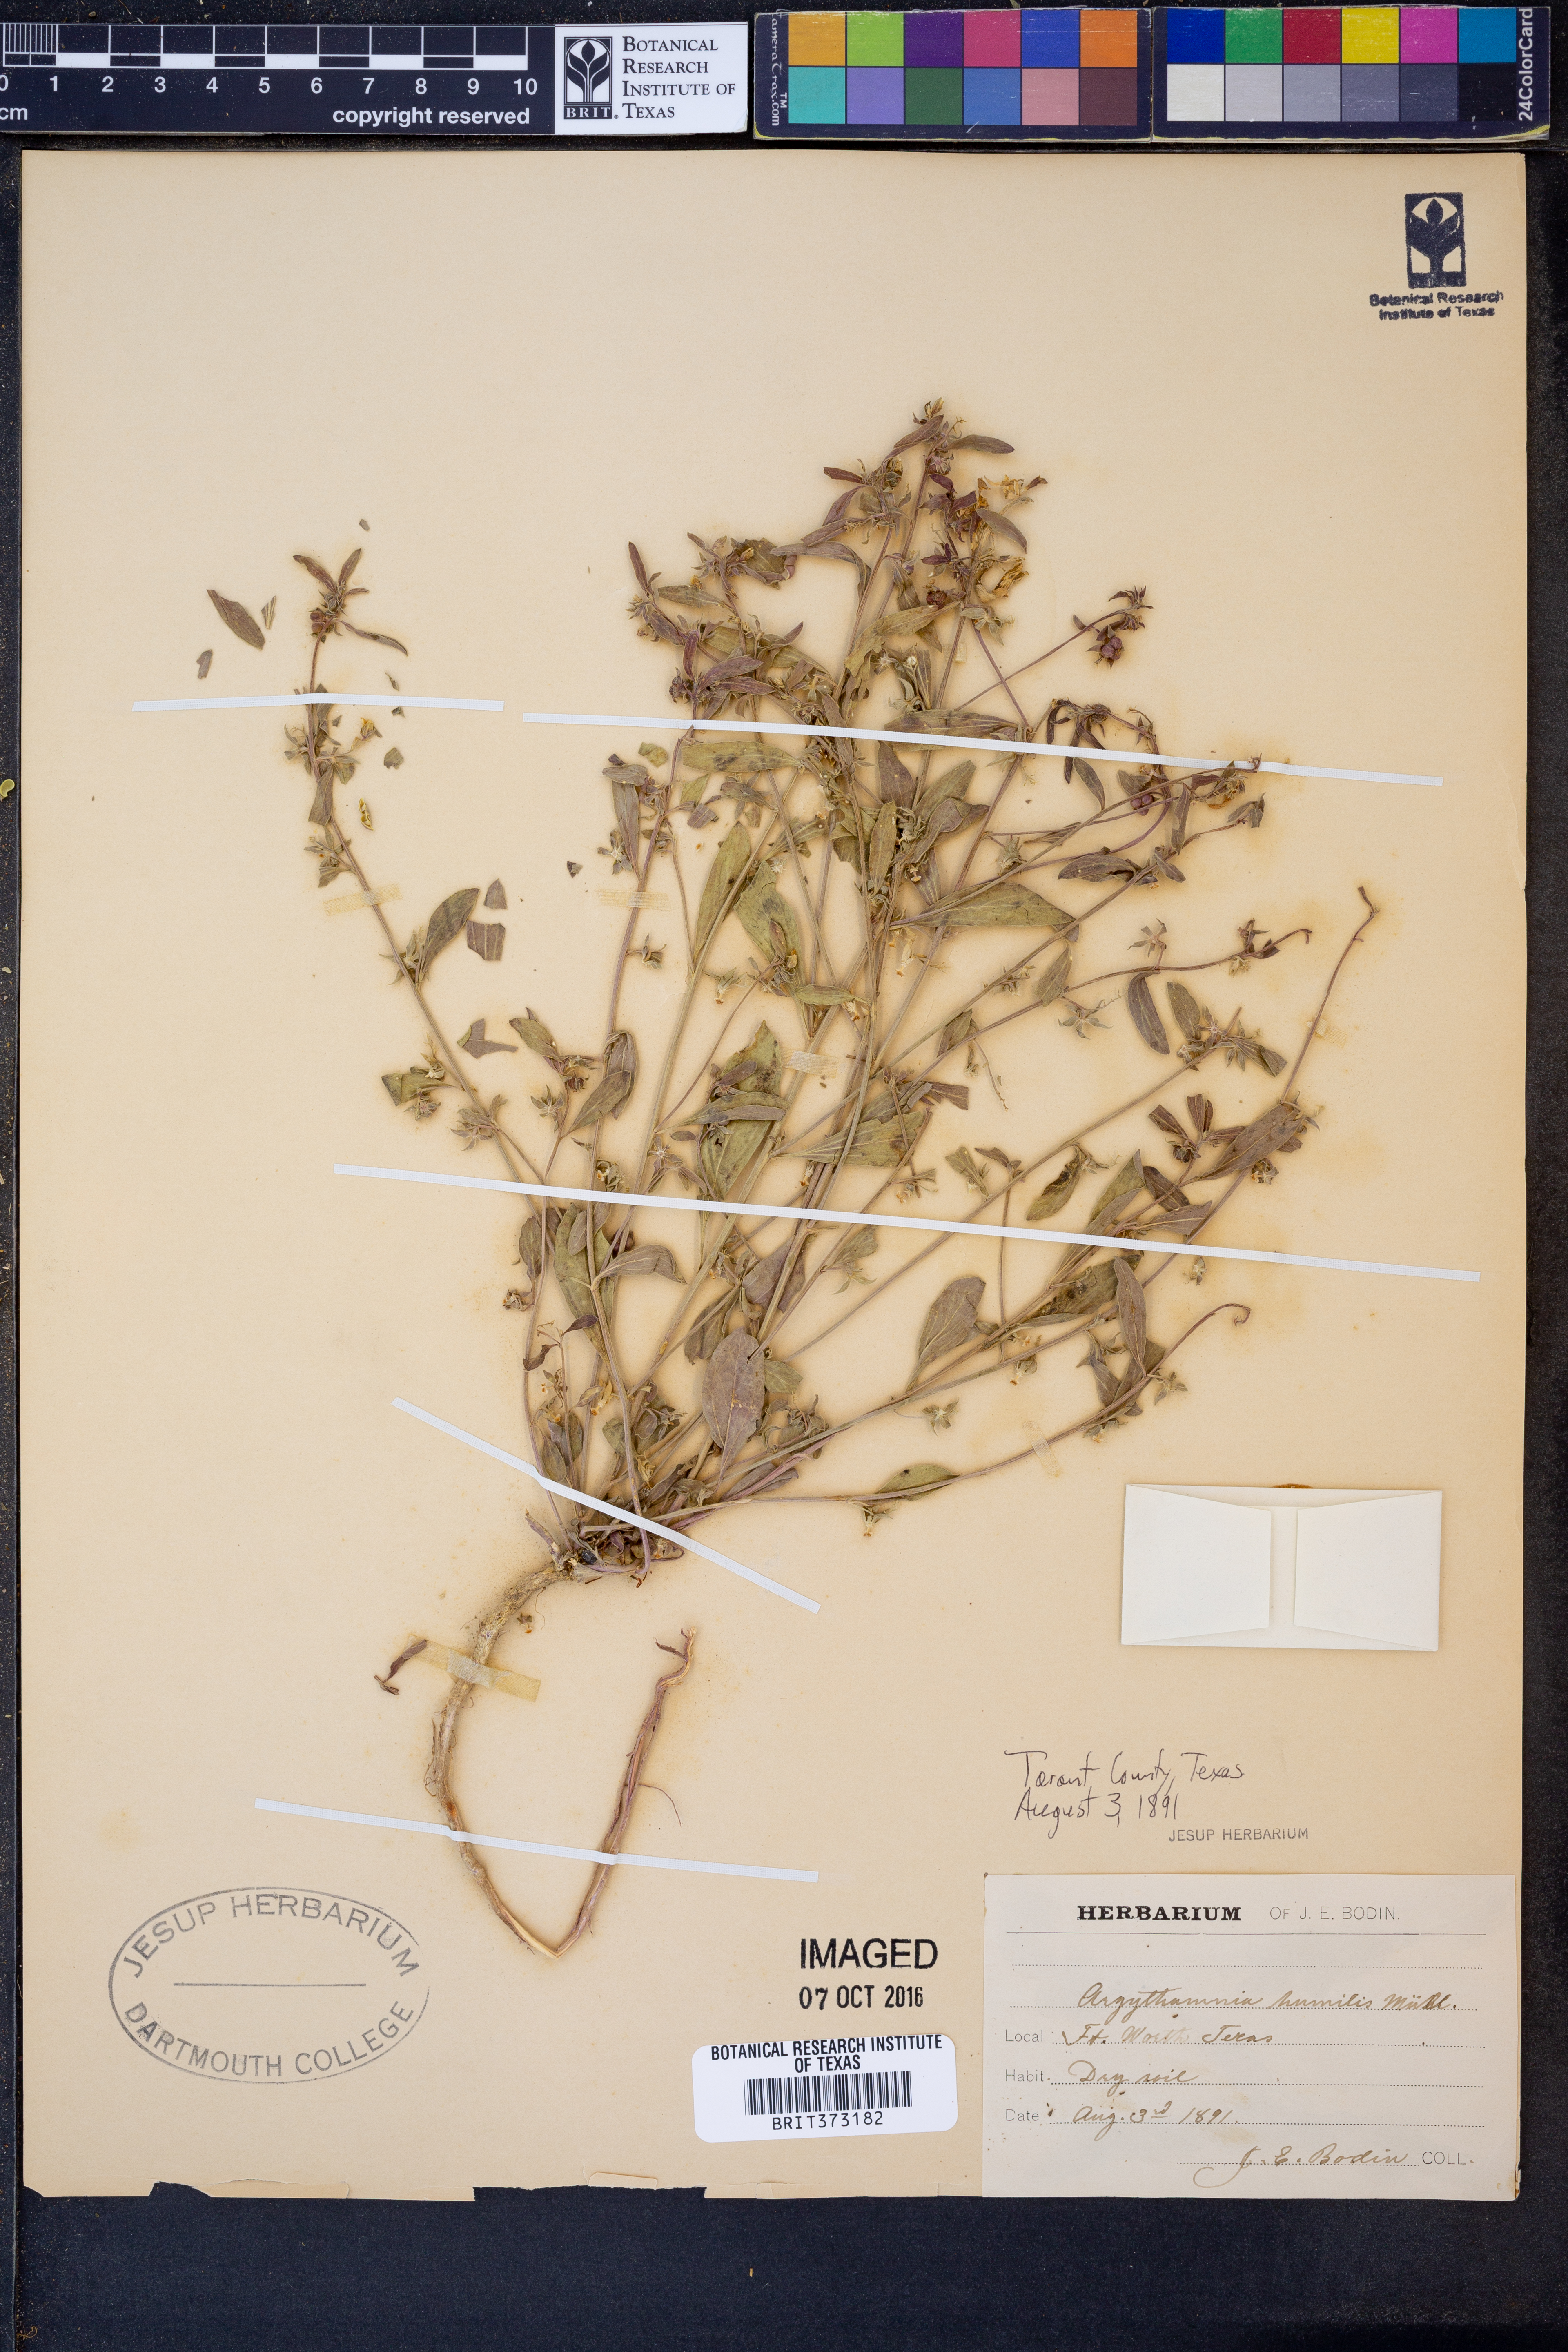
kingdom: Plantae
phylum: Tracheophyta
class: Magnoliopsida
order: Malpighiales
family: Euphorbiaceae
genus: Ditaxis
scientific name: Ditaxis humilis
